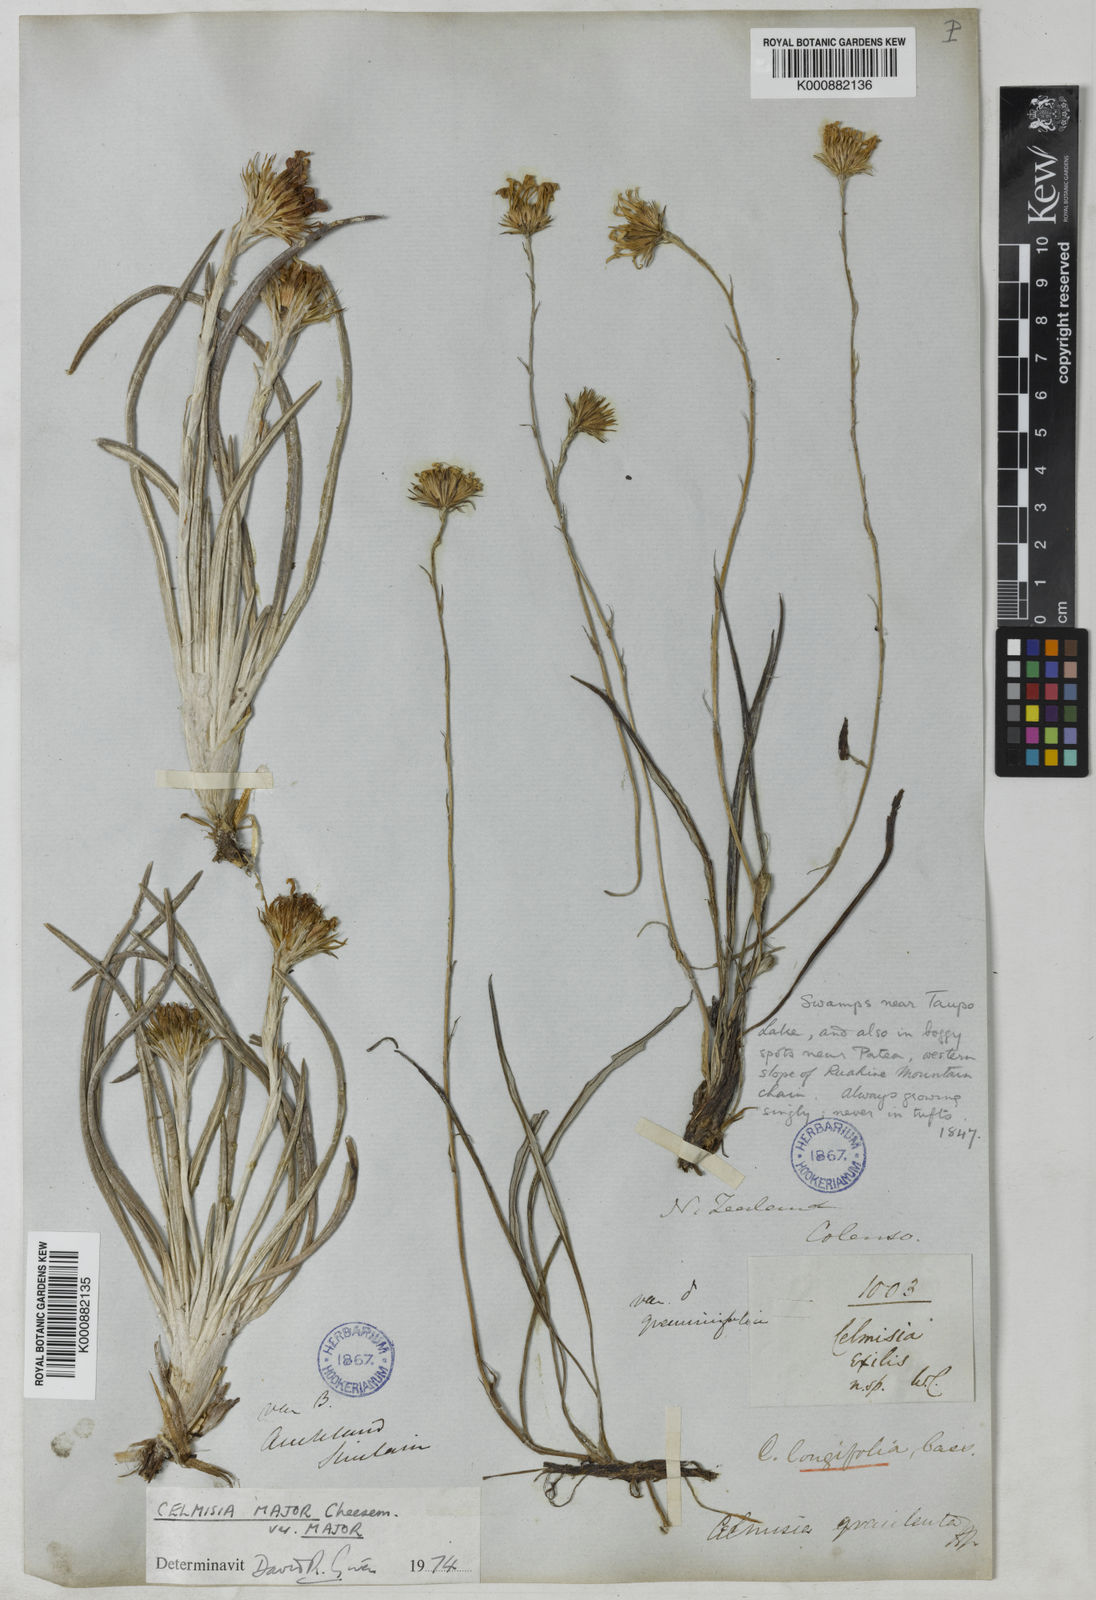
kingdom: Plantae
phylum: Tracheophyta
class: Magnoliopsida
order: Asterales
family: Asteraceae
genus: Celmisia
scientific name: Celmisia graminifolia
